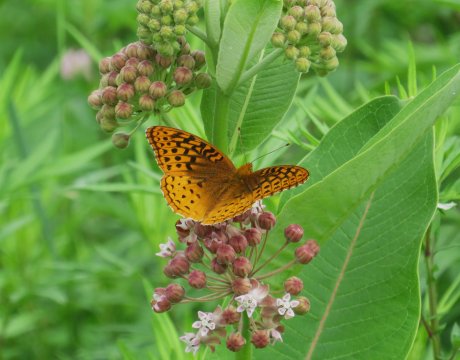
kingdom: Animalia
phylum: Arthropoda
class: Insecta
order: Lepidoptera
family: Nymphalidae
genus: Speyeria
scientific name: Speyeria cybele
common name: Great Spangled Fritillary
